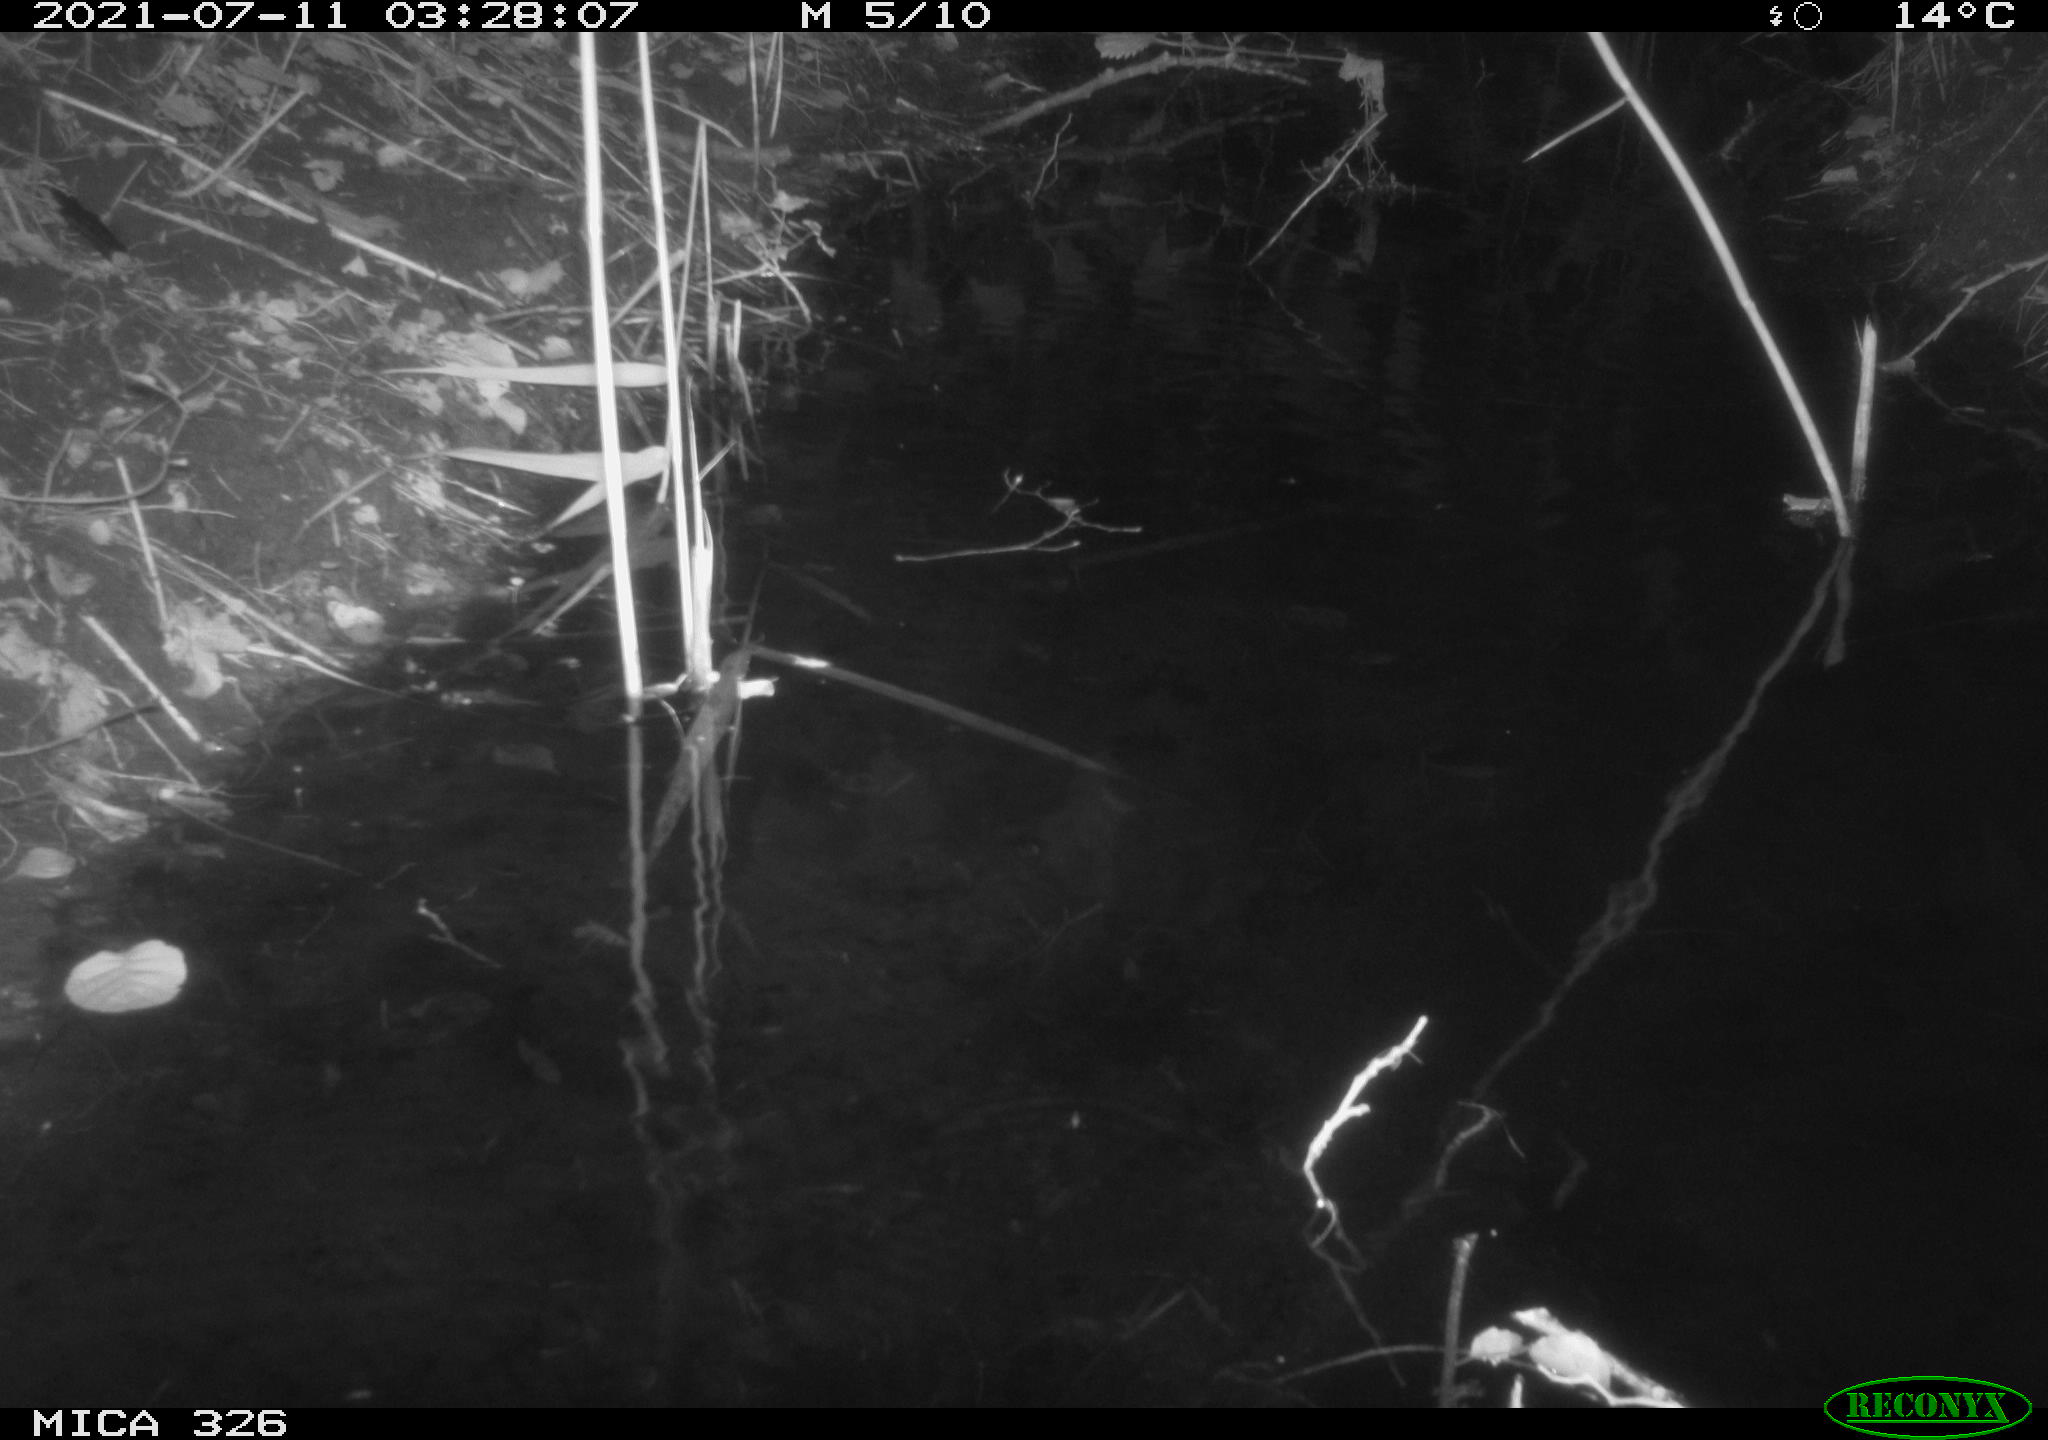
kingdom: Animalia
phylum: Chordata
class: Mammalia
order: Rodentia
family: Muridae
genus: Rattus
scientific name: Rattus norvegicus
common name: Brown rat
